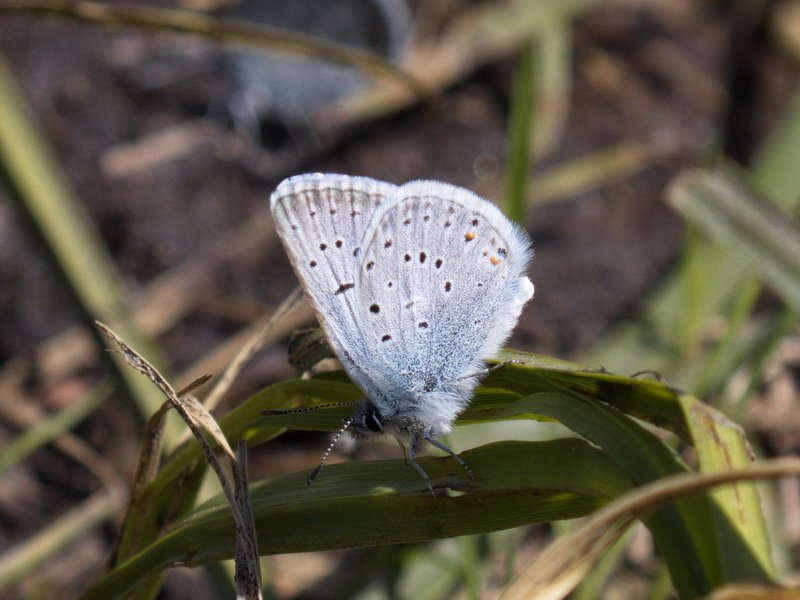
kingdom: Animalia
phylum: Arthropoda
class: Insecta
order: Lepidoptera
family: Lycaenidae
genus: Plebejus
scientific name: Plebejus saepiolus
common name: Greenish Blue
